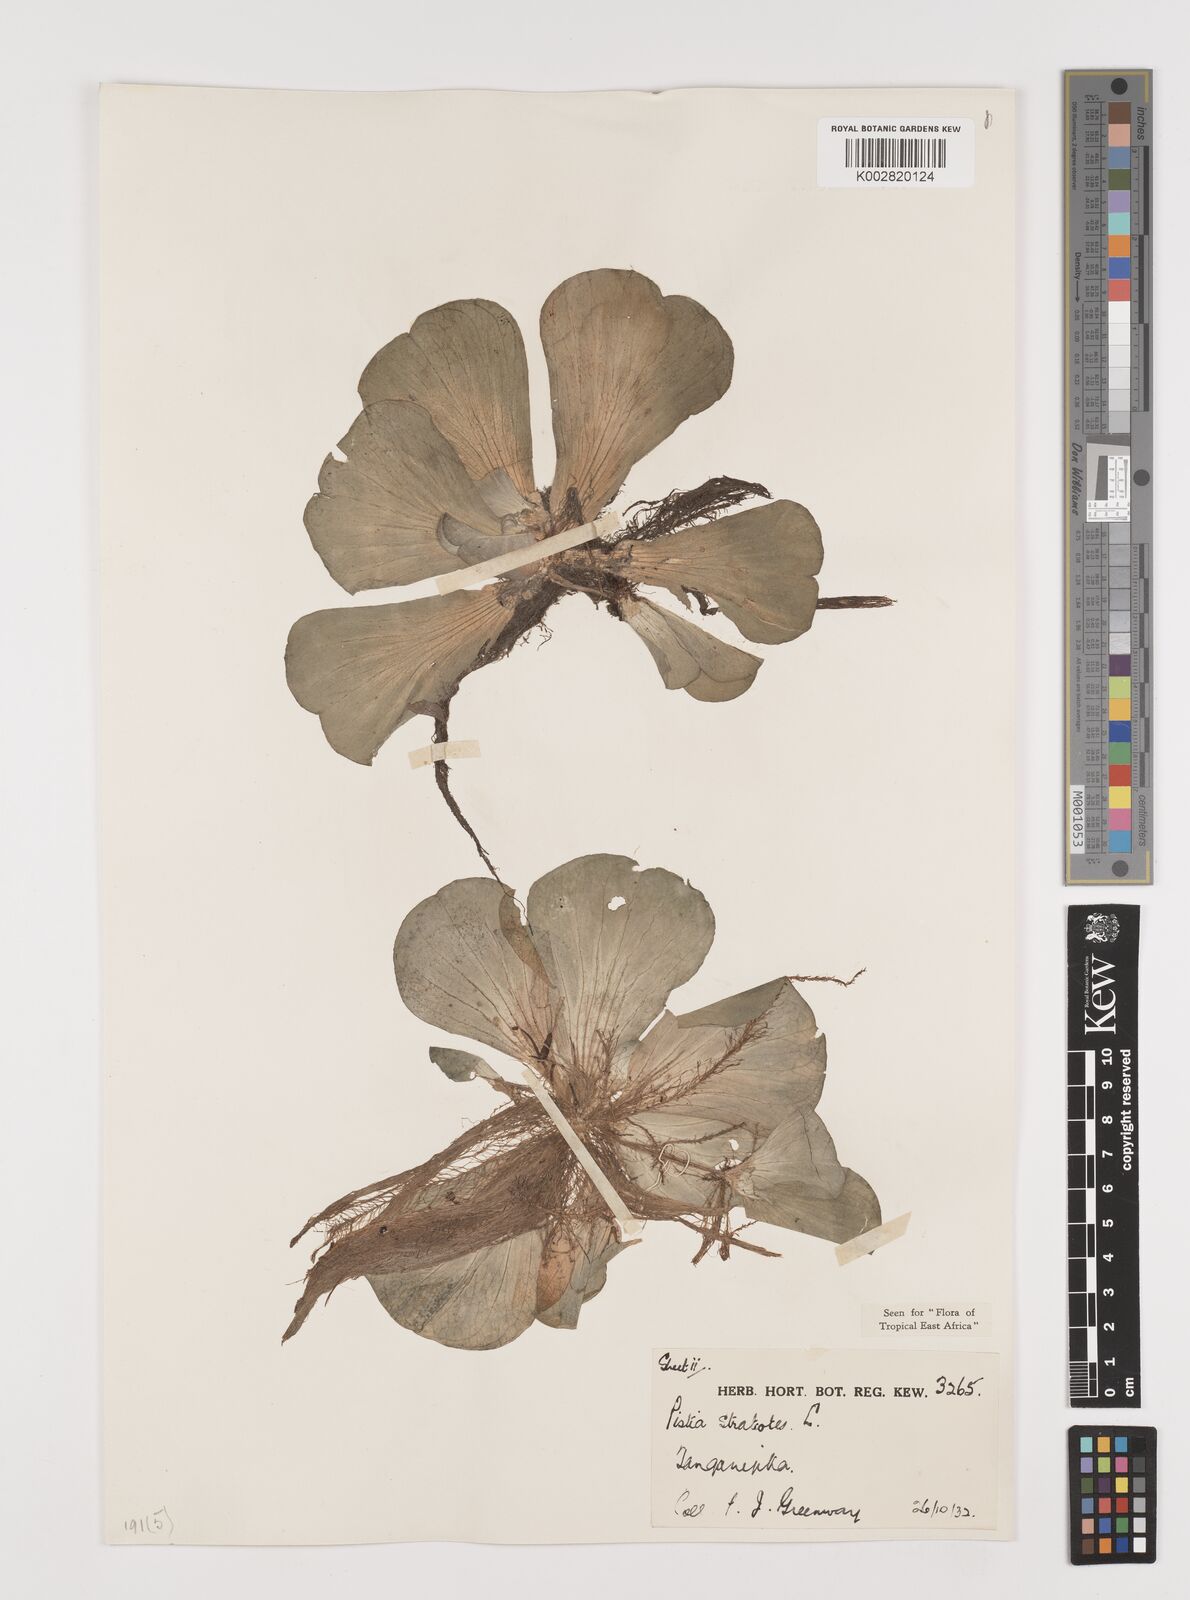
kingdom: Plantae
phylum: Tracheophyta
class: Liliopsida
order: Alismatales
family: Araceae
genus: Pistia
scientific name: Pistia stratiotes
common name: Water lettuce
